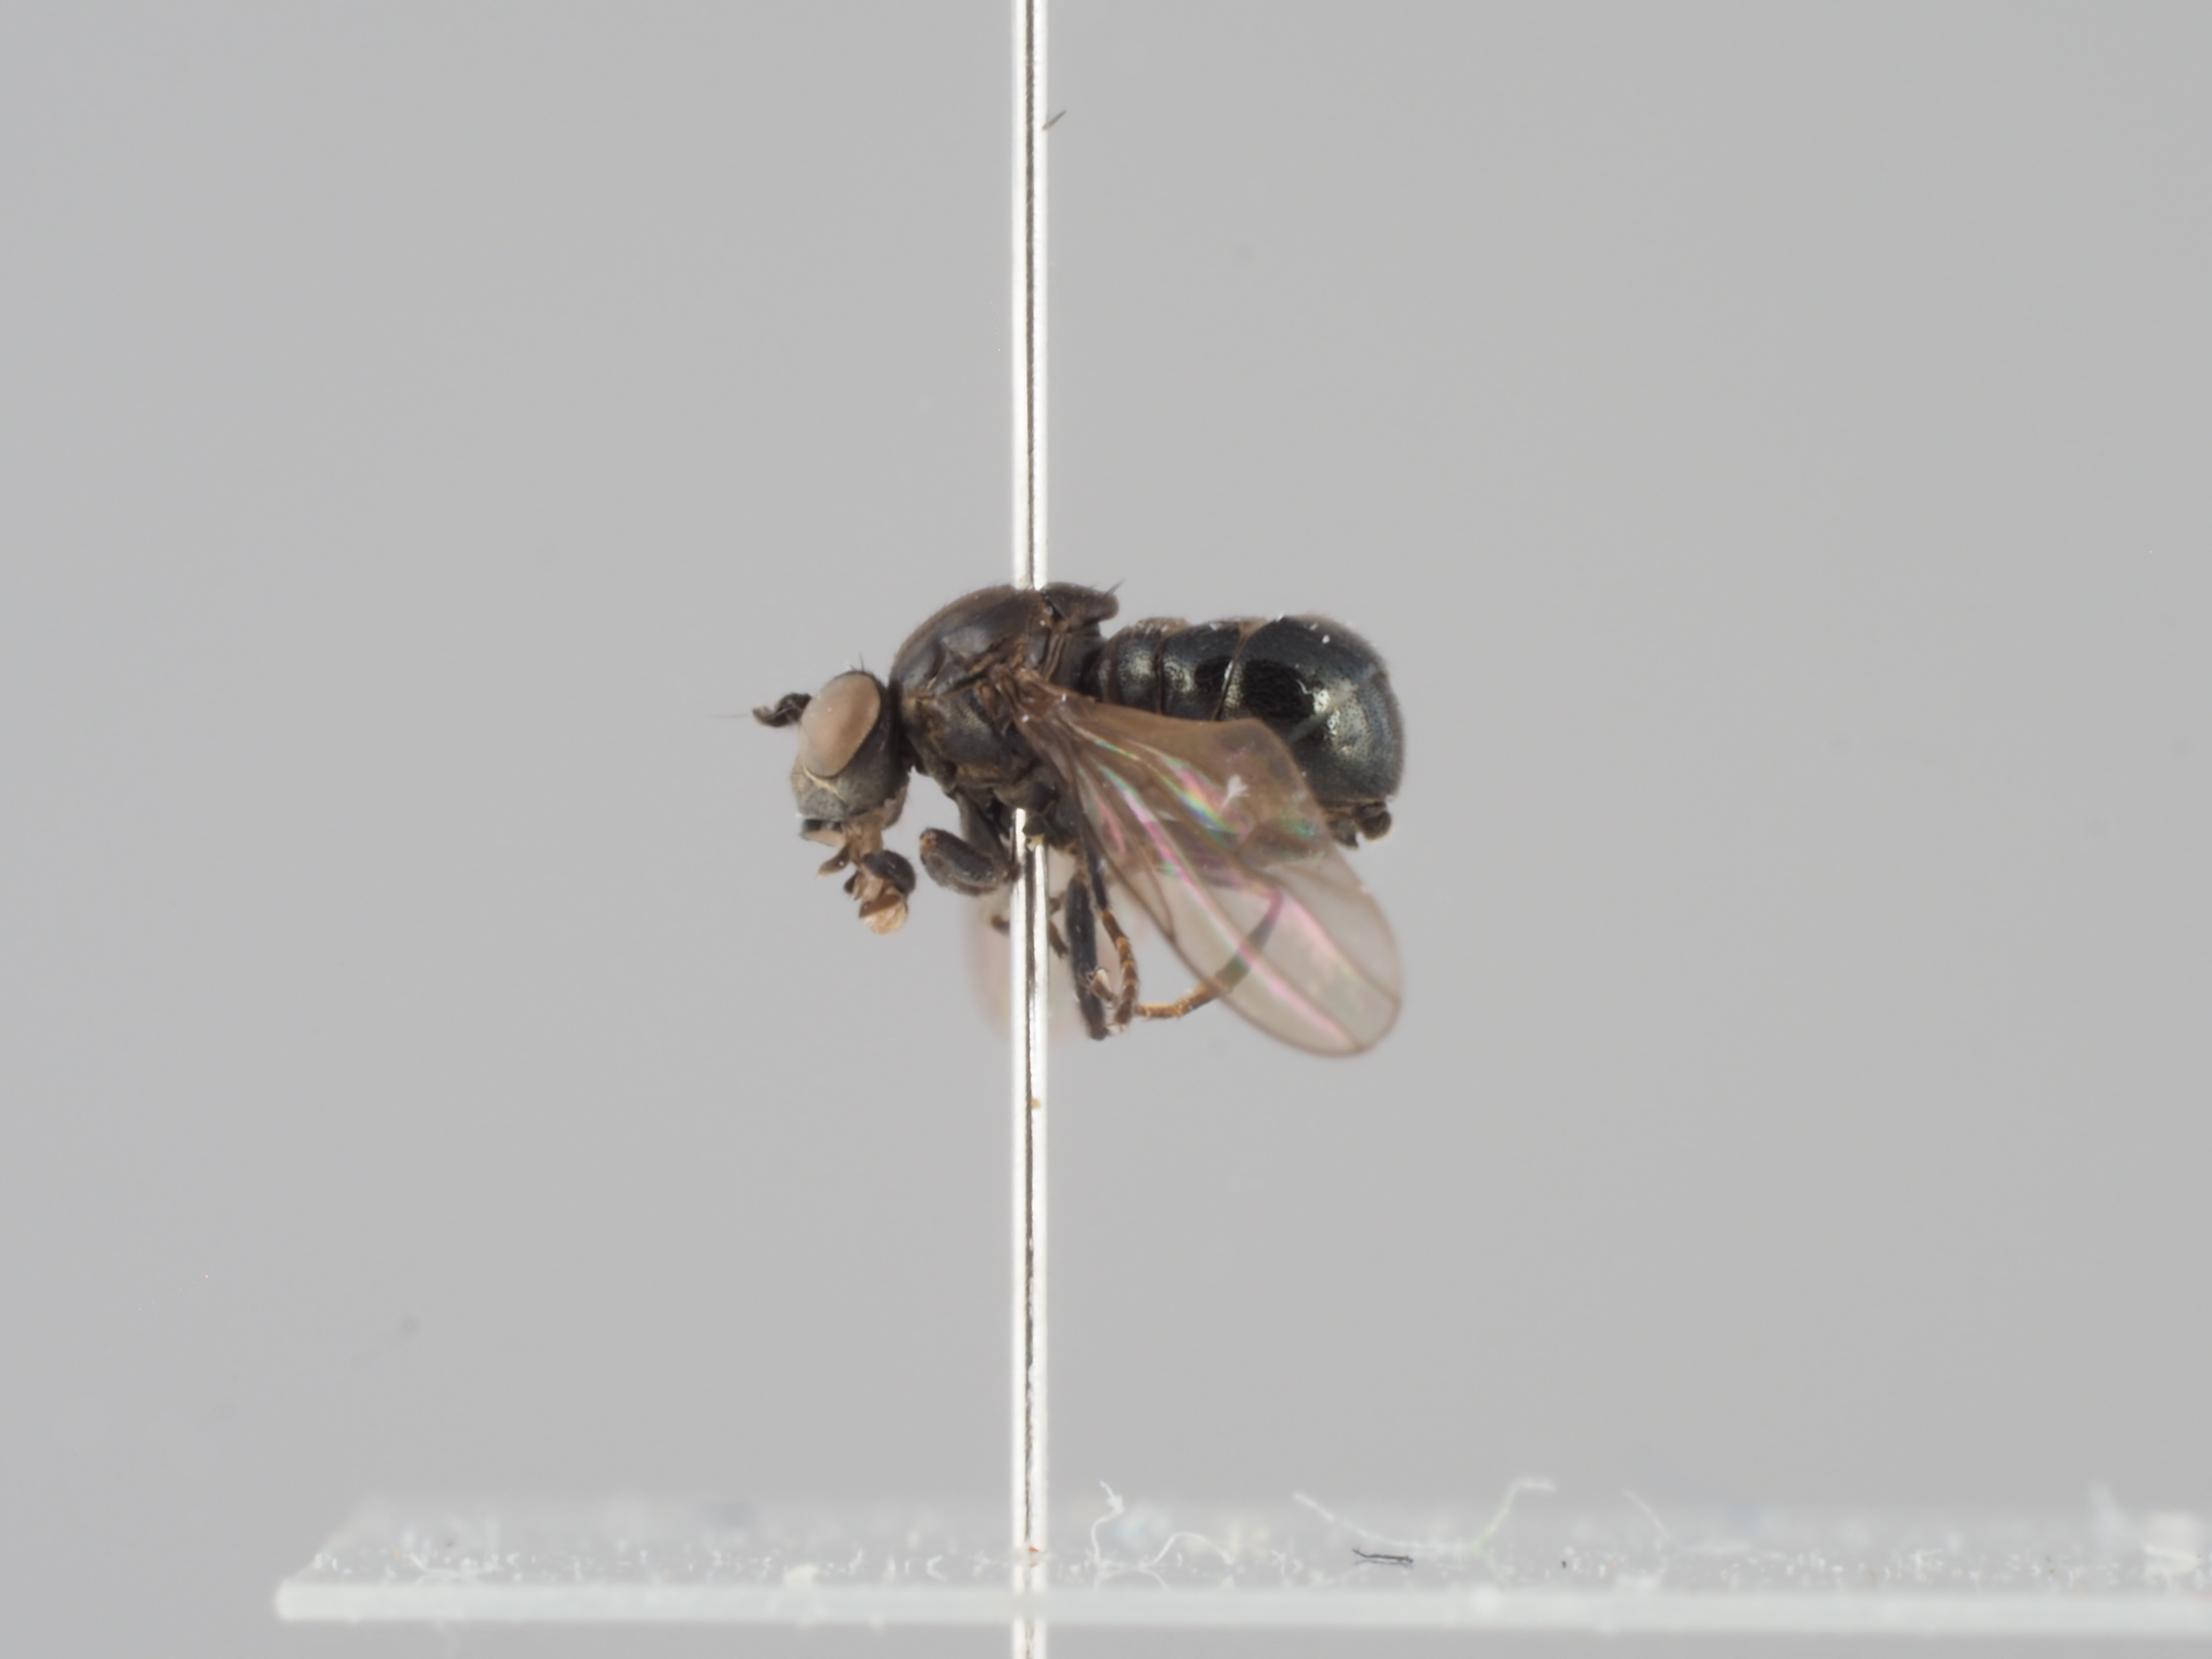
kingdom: Animalia
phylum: Arthropoda
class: Insecta
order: Diptera
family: Ephydridae
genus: Lytogaster
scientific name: Lytogaster abdominalis
